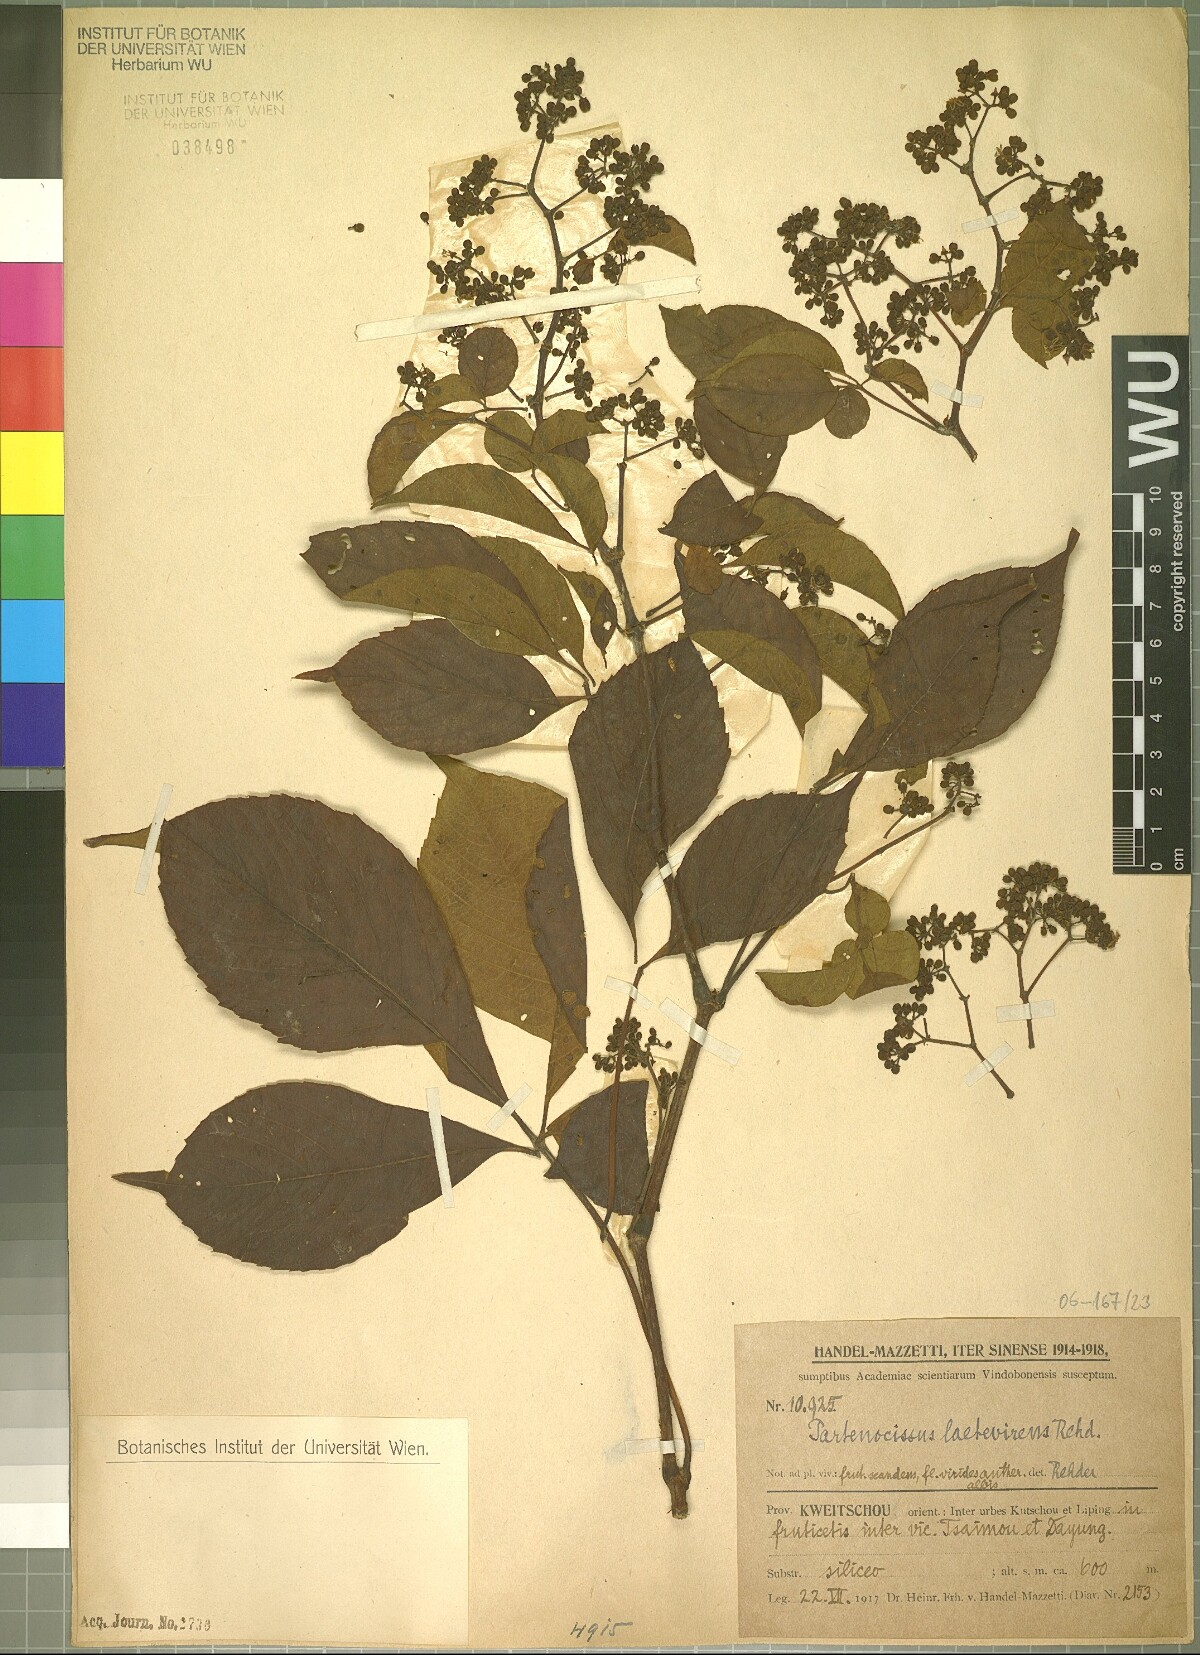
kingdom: Plantae
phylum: Tracheophyta
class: Magnoliopsida
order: Vitales
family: Vitaceae
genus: Parthenocissus
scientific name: Parthenocissus laetevirens
